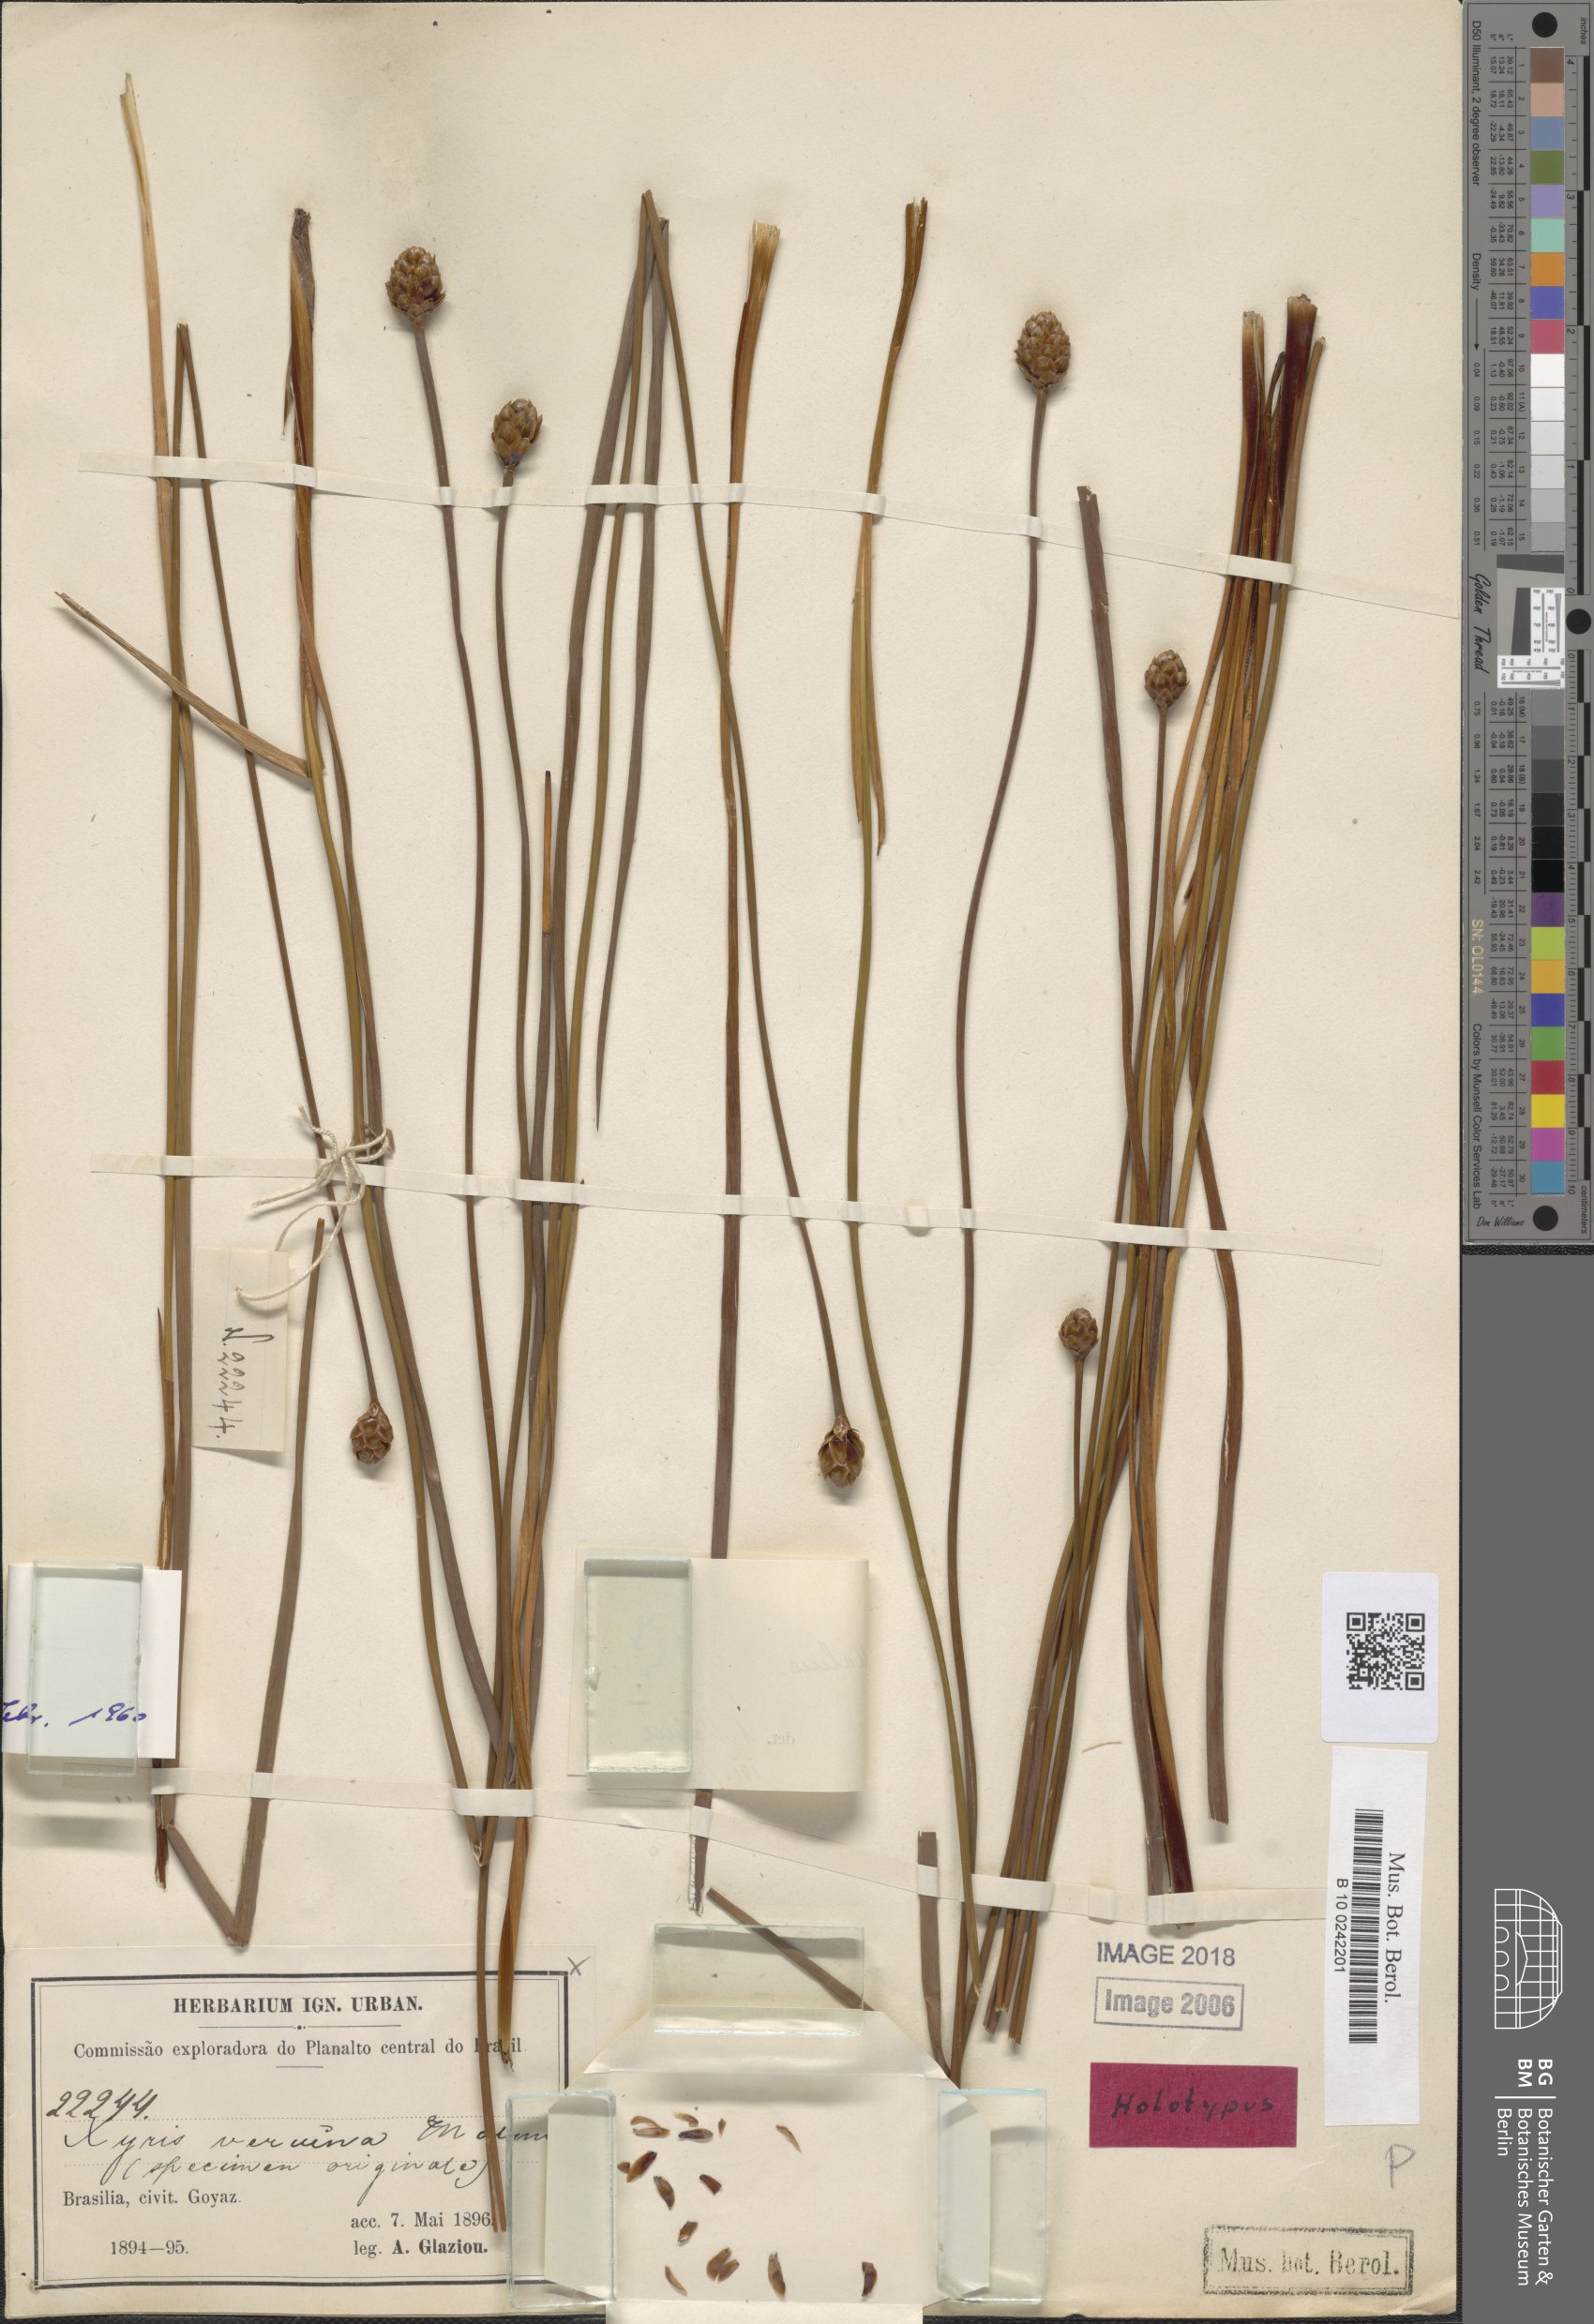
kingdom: Plantae
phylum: Tracheophyta
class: Liliopsida
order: Poales
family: Xyridaceae
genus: Xyris
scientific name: Xyris veruina
